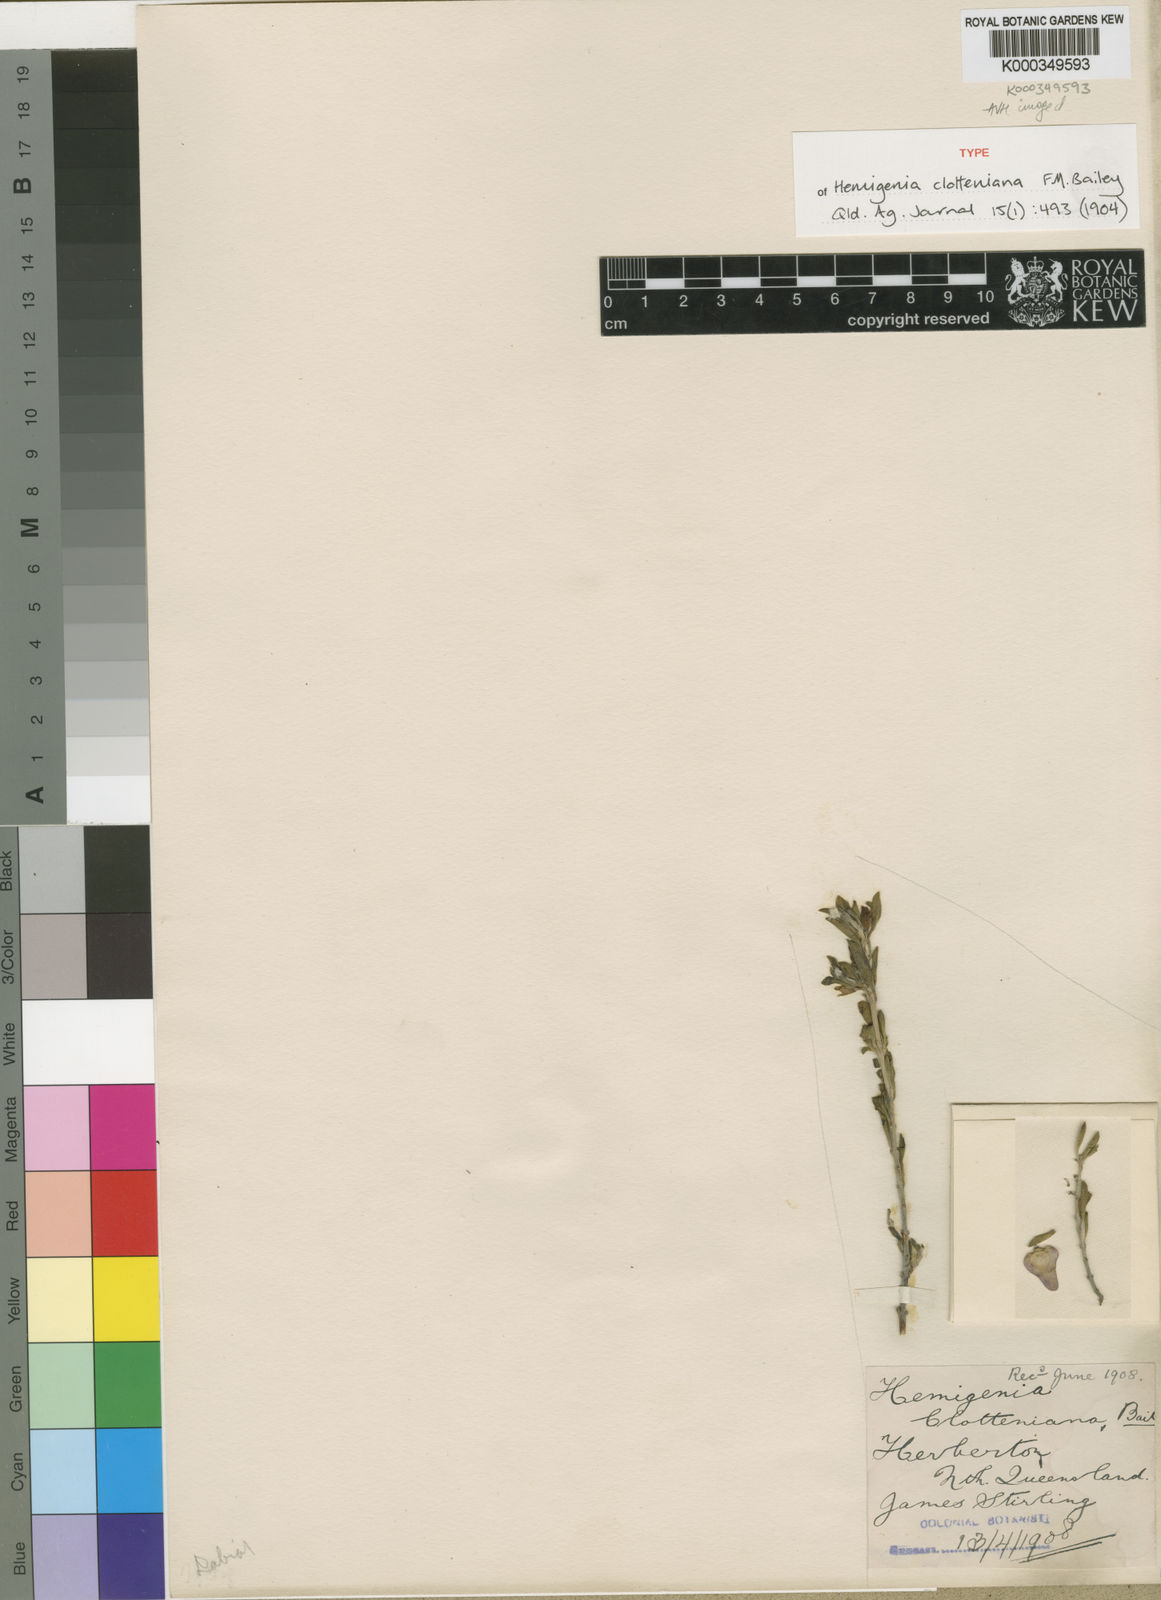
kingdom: Plantae
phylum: Tracheophyta
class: Magnoliopsida
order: Lamiales
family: Lamiaceae
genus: Prostanthera
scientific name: Prostanthera clotteniana
